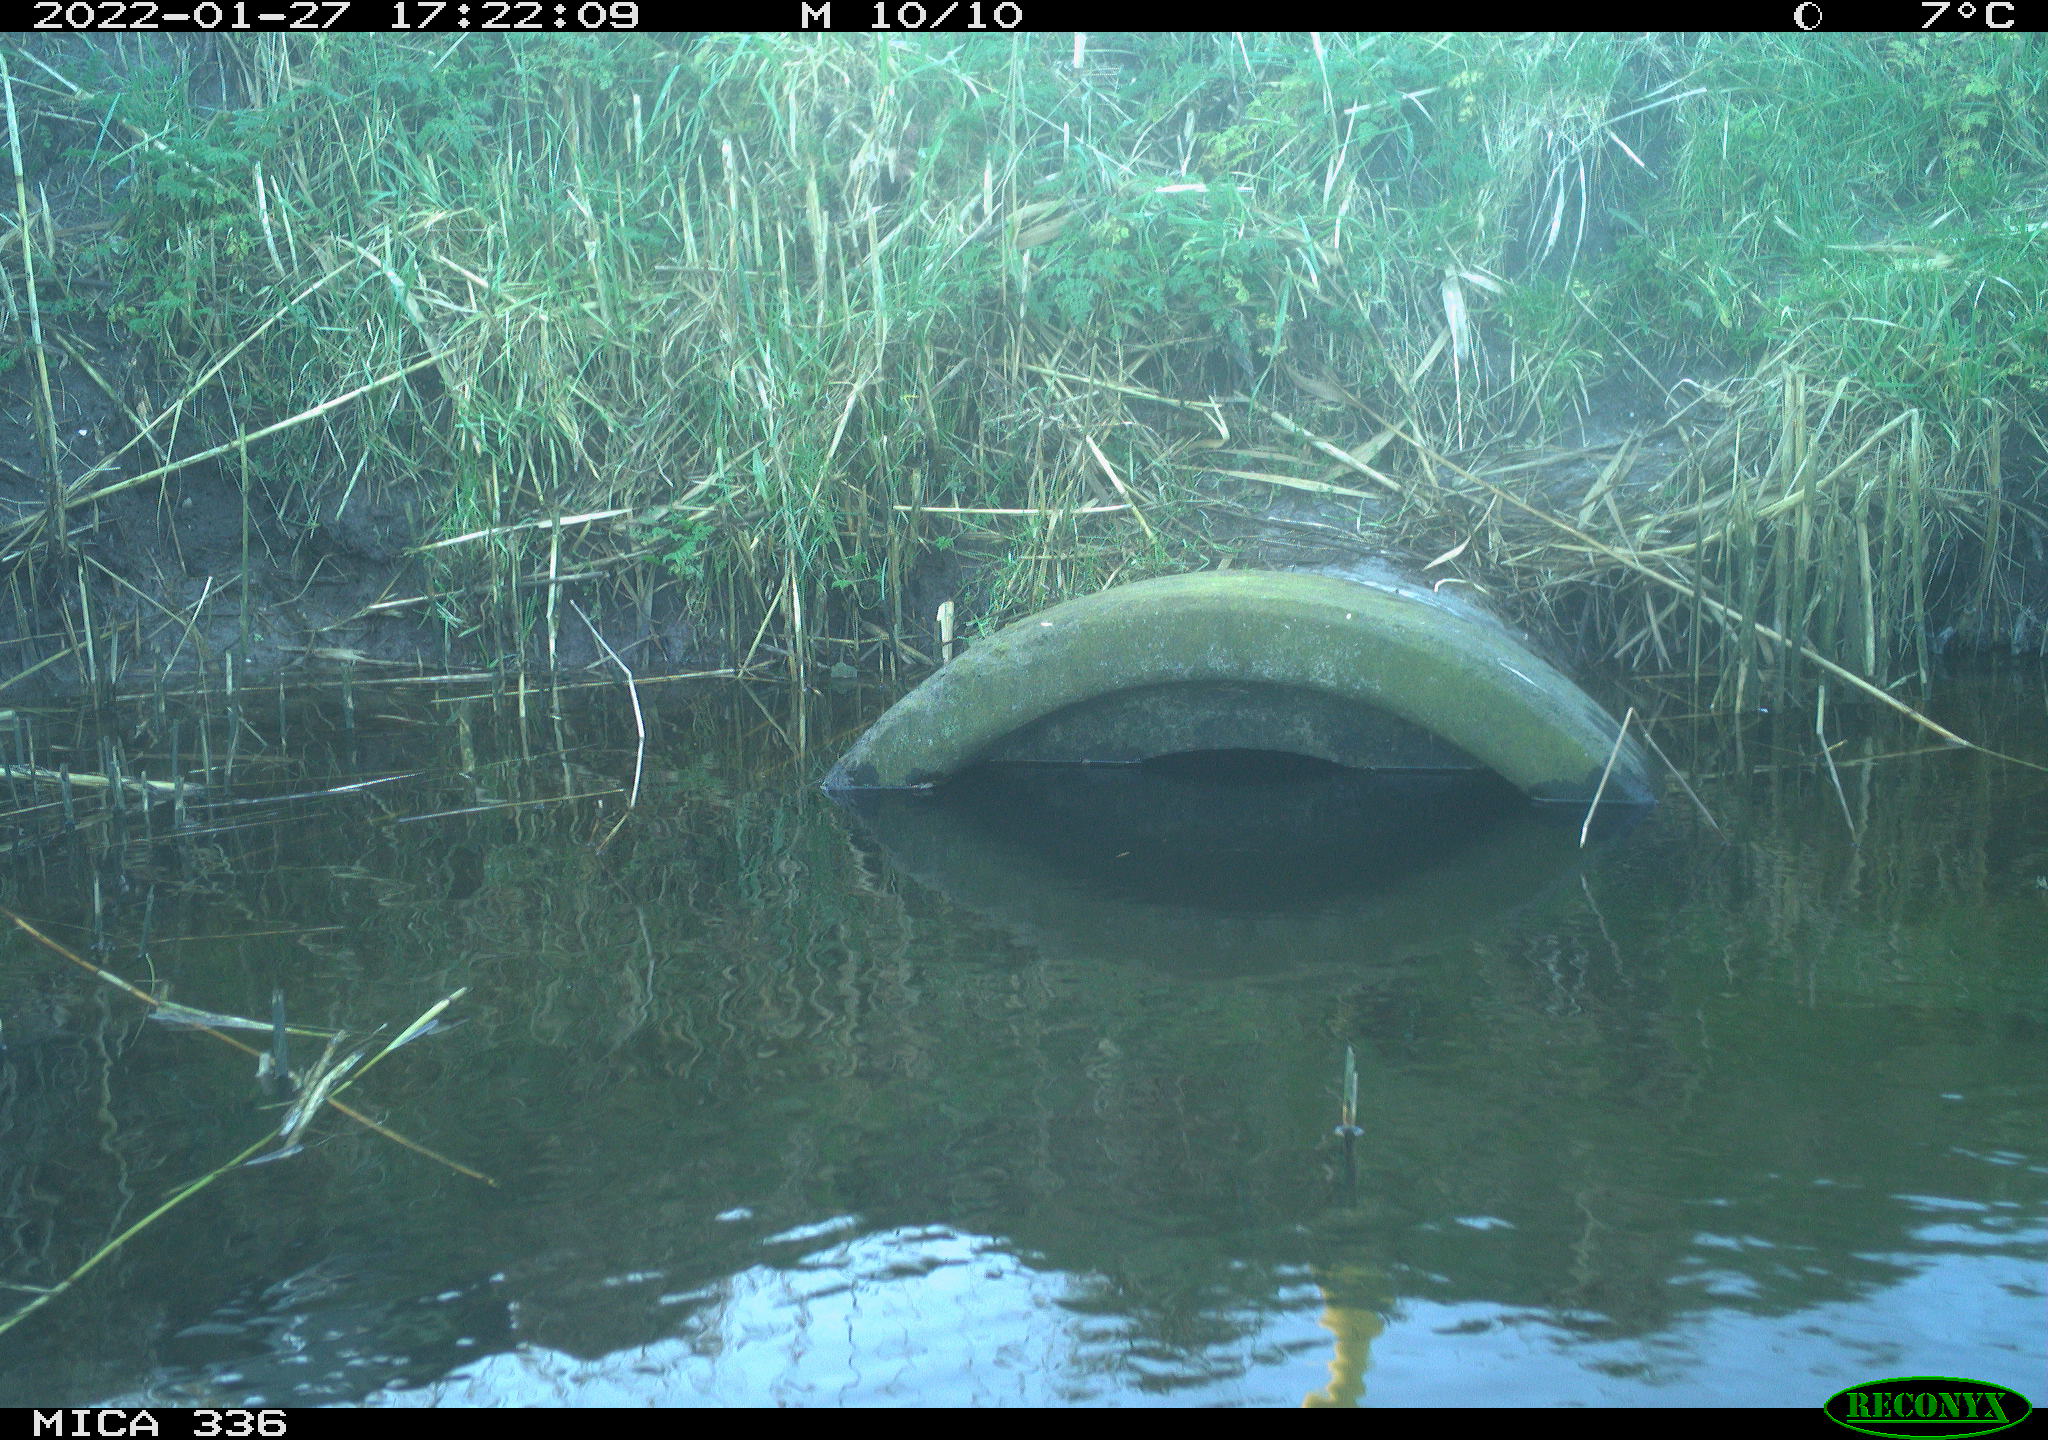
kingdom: Animalia
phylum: Chordata
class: Aves
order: Gruiformes
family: Rallidae
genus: Gallinula
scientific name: Gallinula chloropus
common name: Common moorhen
